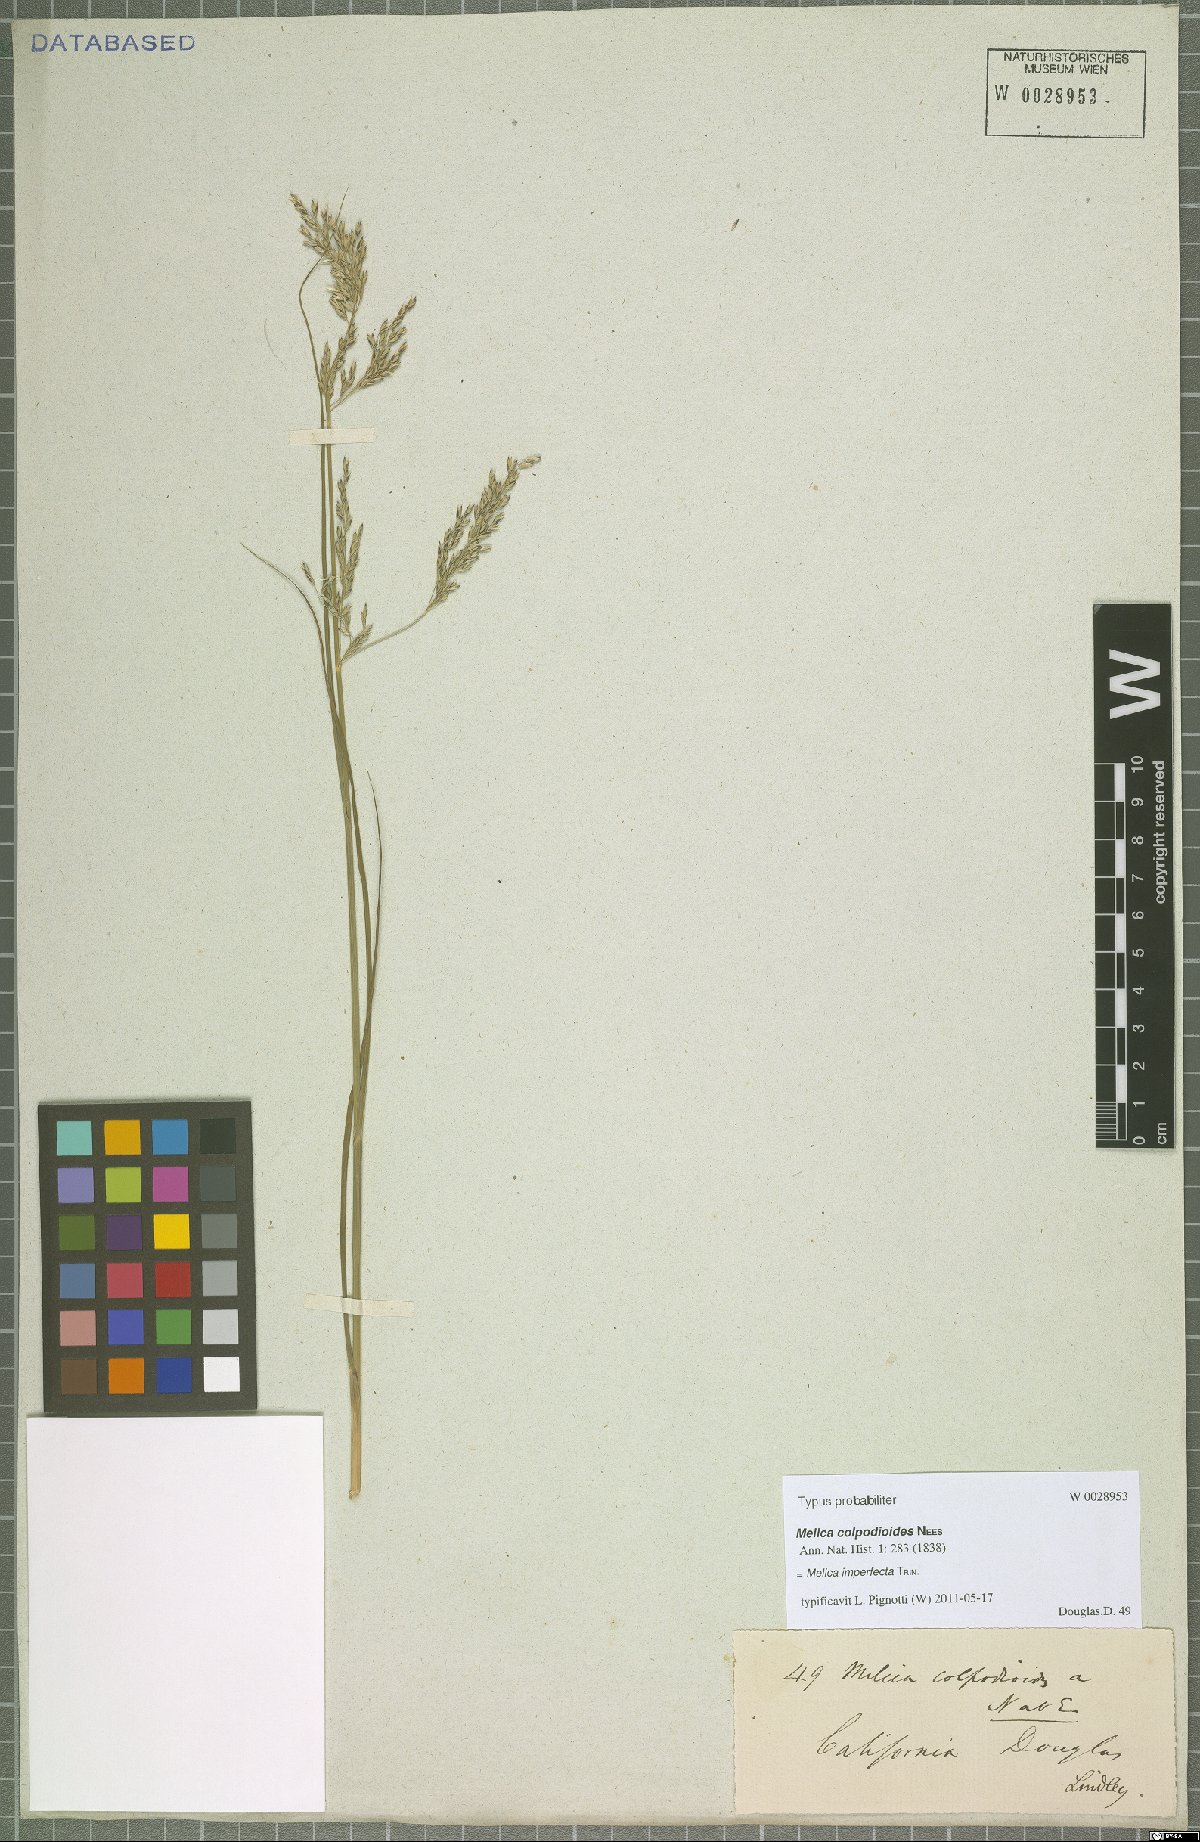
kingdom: Plantae
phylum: Tracheophyta
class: Liliopsida
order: Poales
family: Poaceae
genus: Melica
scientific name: Melica imperfecta
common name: California melic
